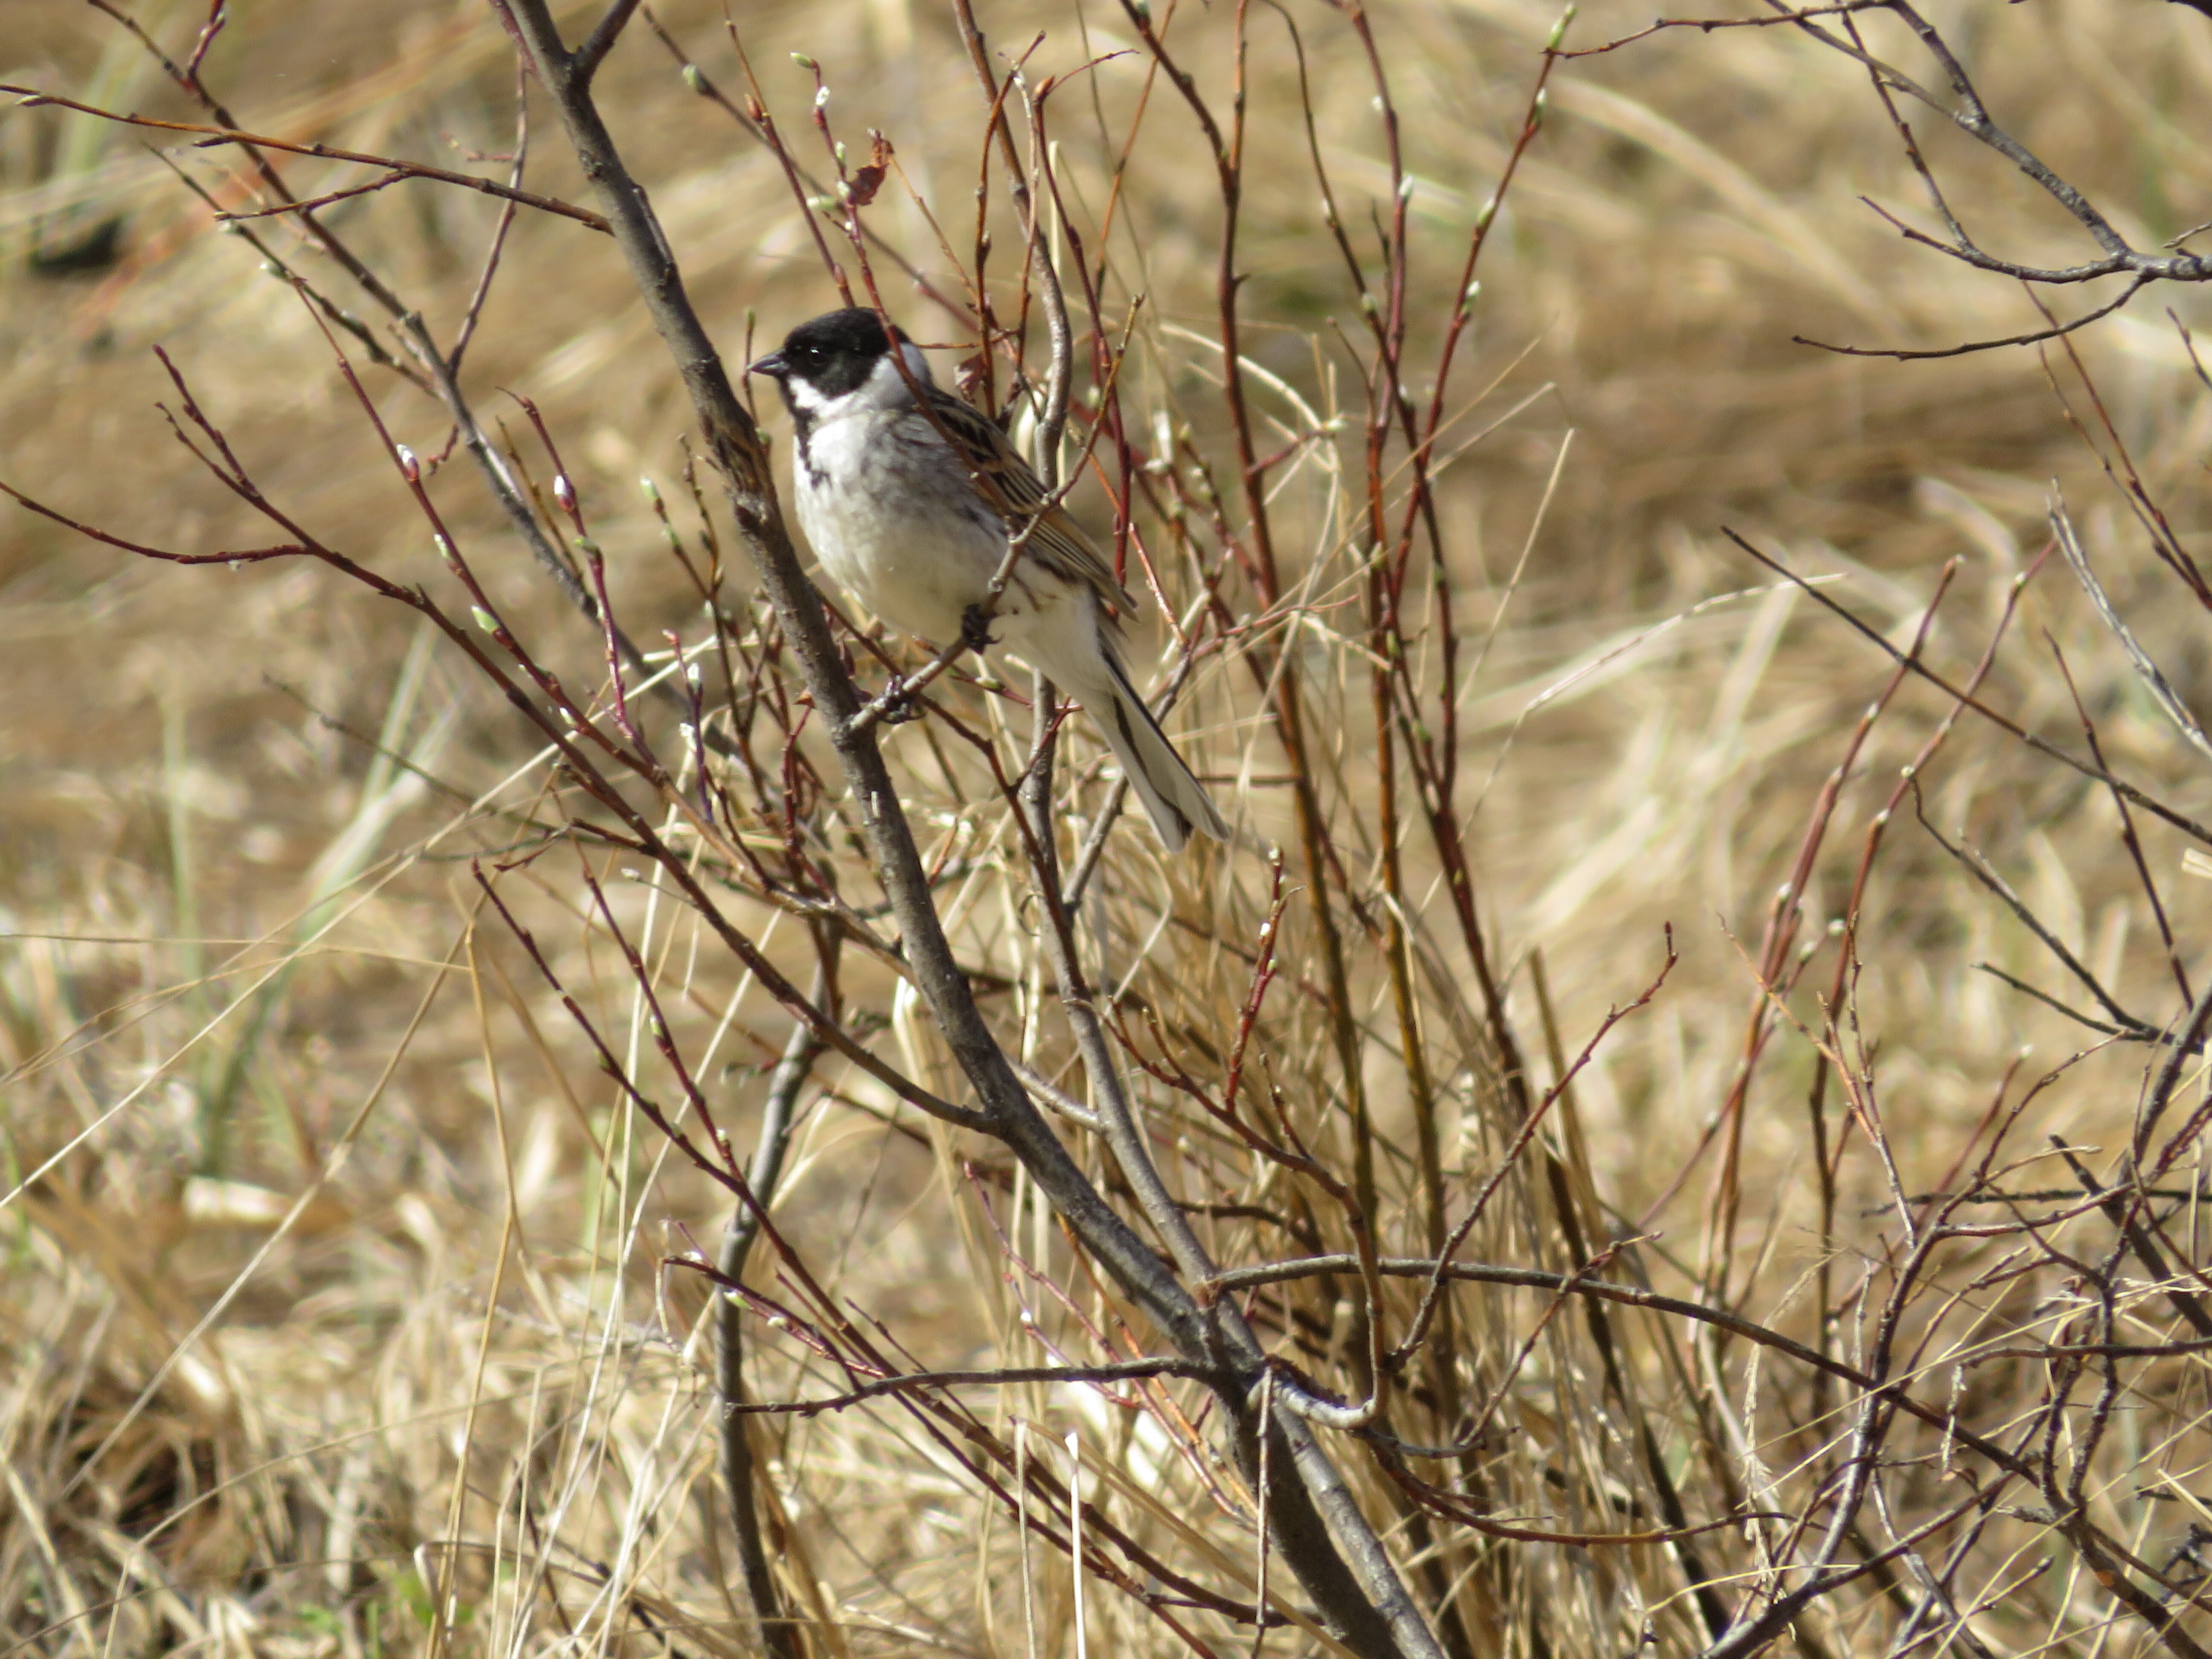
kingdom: Animalia
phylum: Chordata
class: Aves
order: Passeriformes
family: Emberizidae
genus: Emberiza
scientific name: Emberiza schoeniclus
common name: Reed bunting
